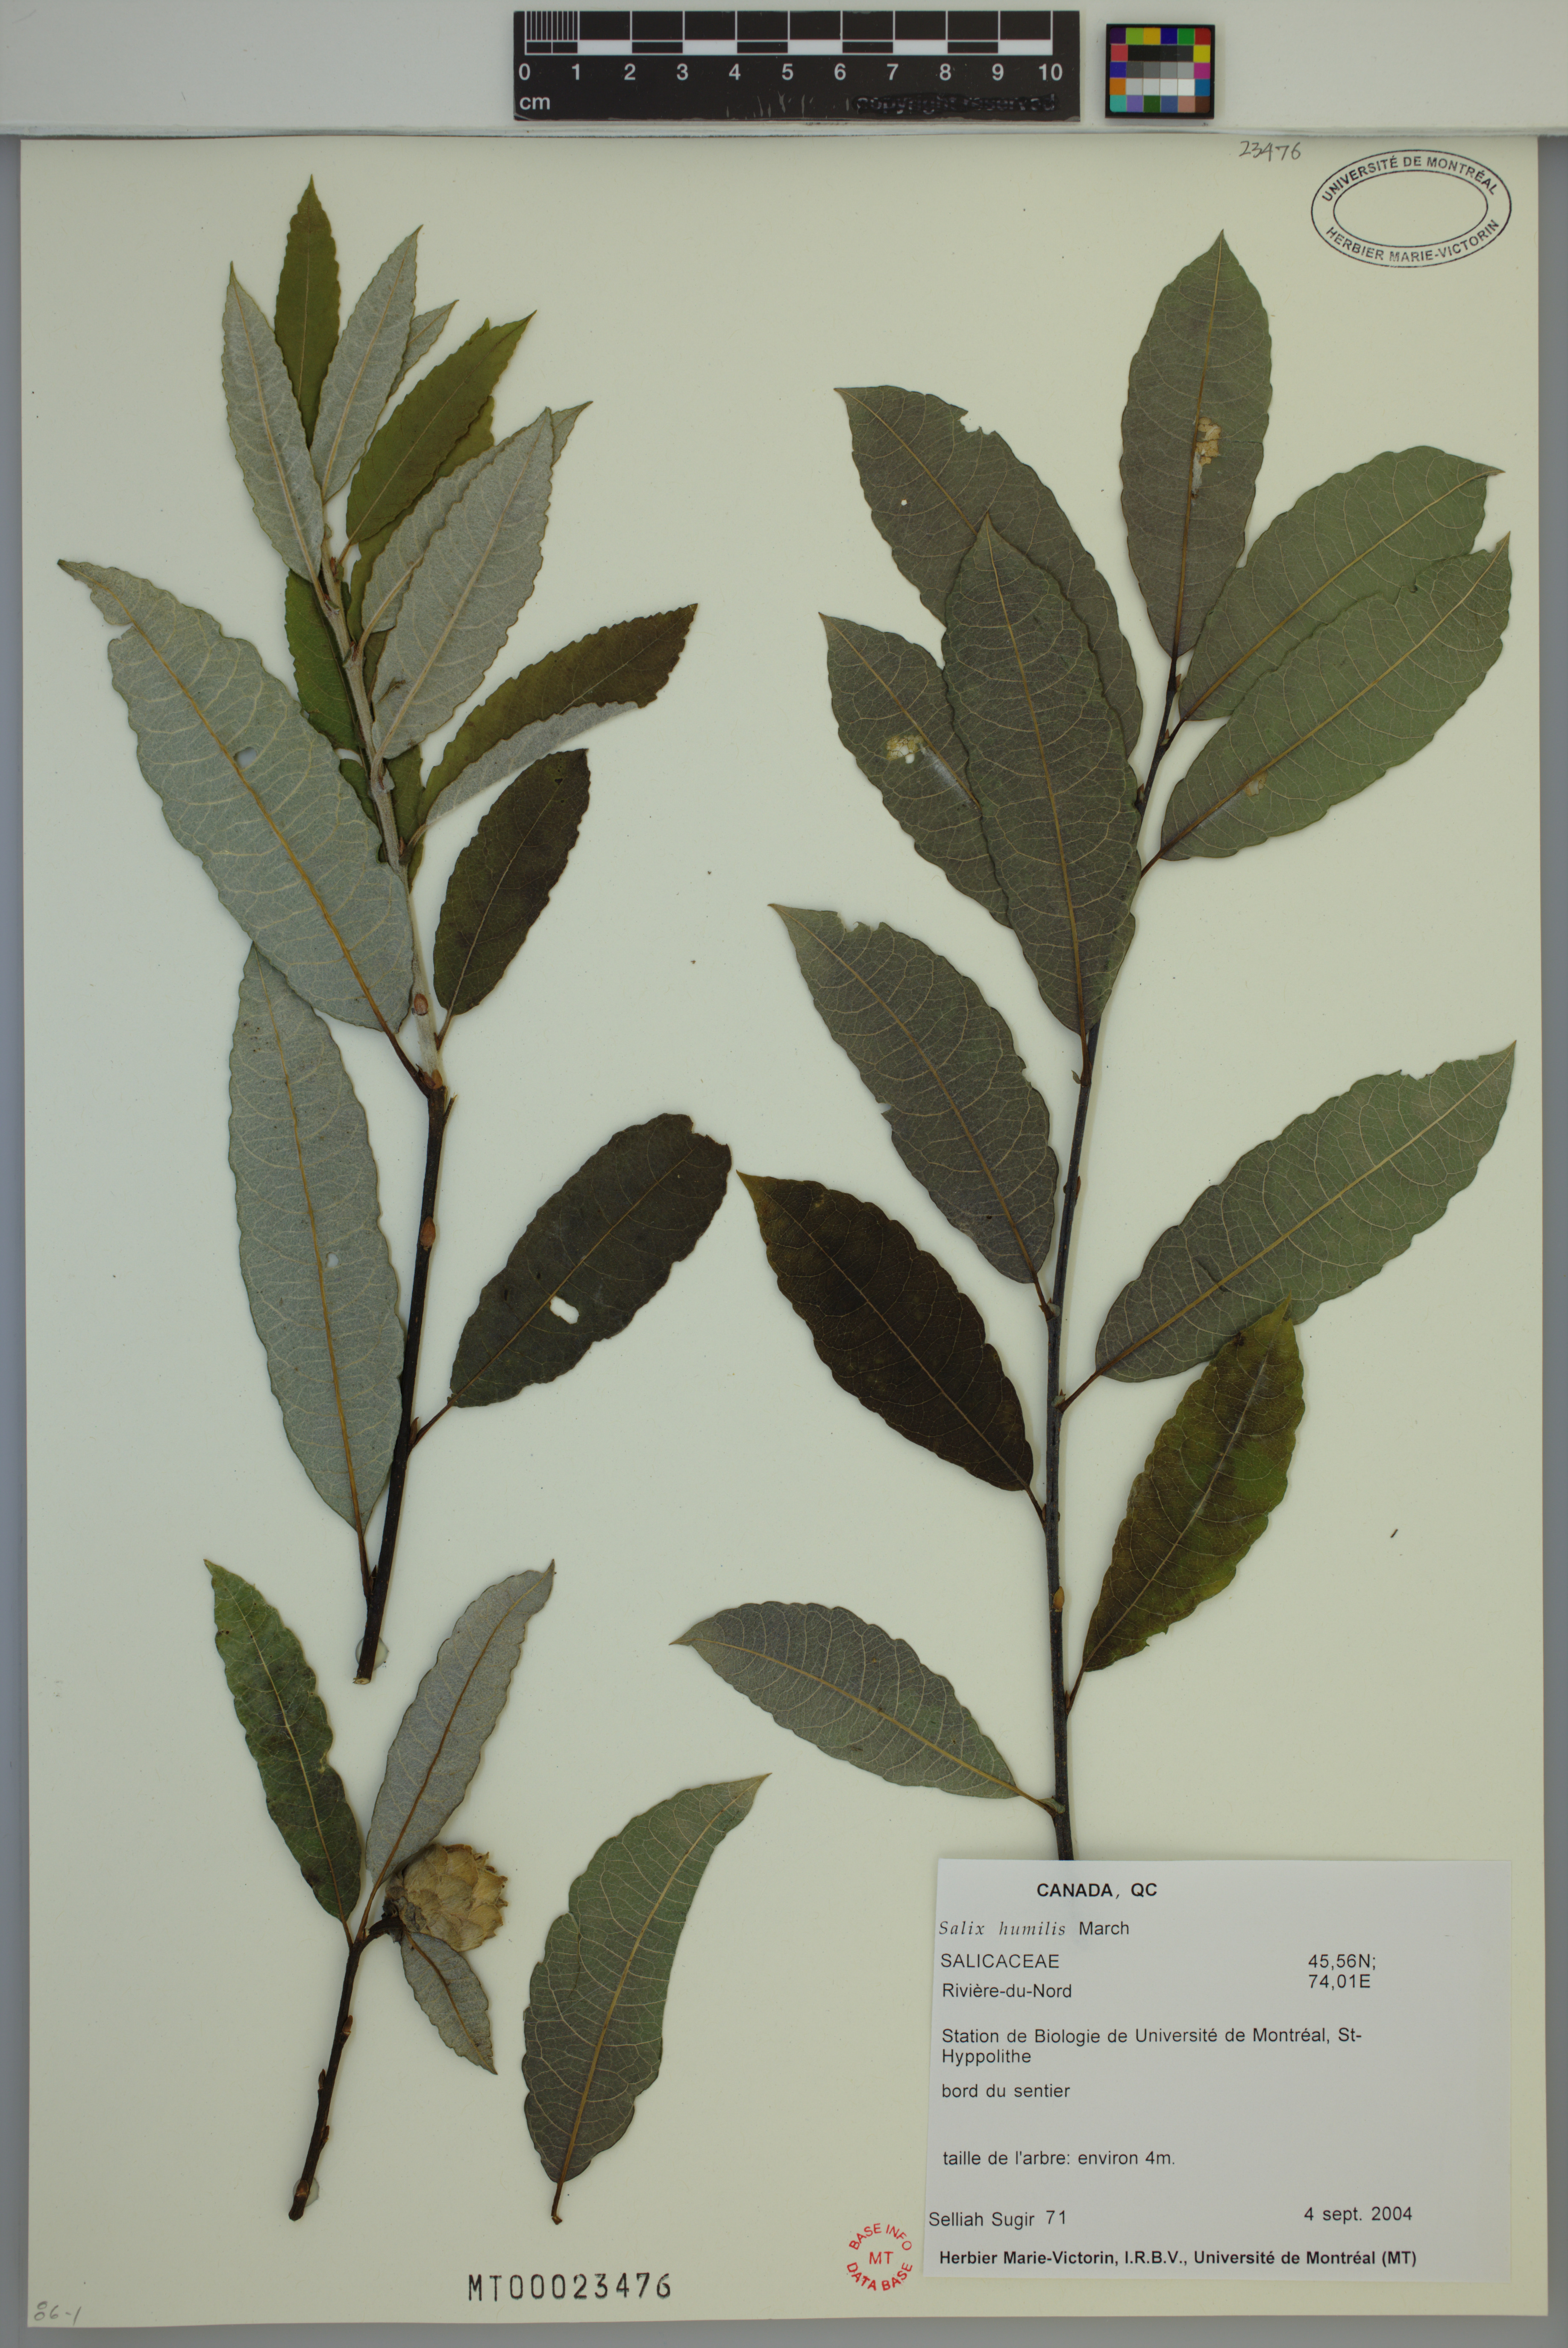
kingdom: Plantae
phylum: Tracheophyta
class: Magnoliopsida
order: Malpighiales
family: Salicaceae
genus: Salix
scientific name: Salix humilis
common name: Prairie willow
